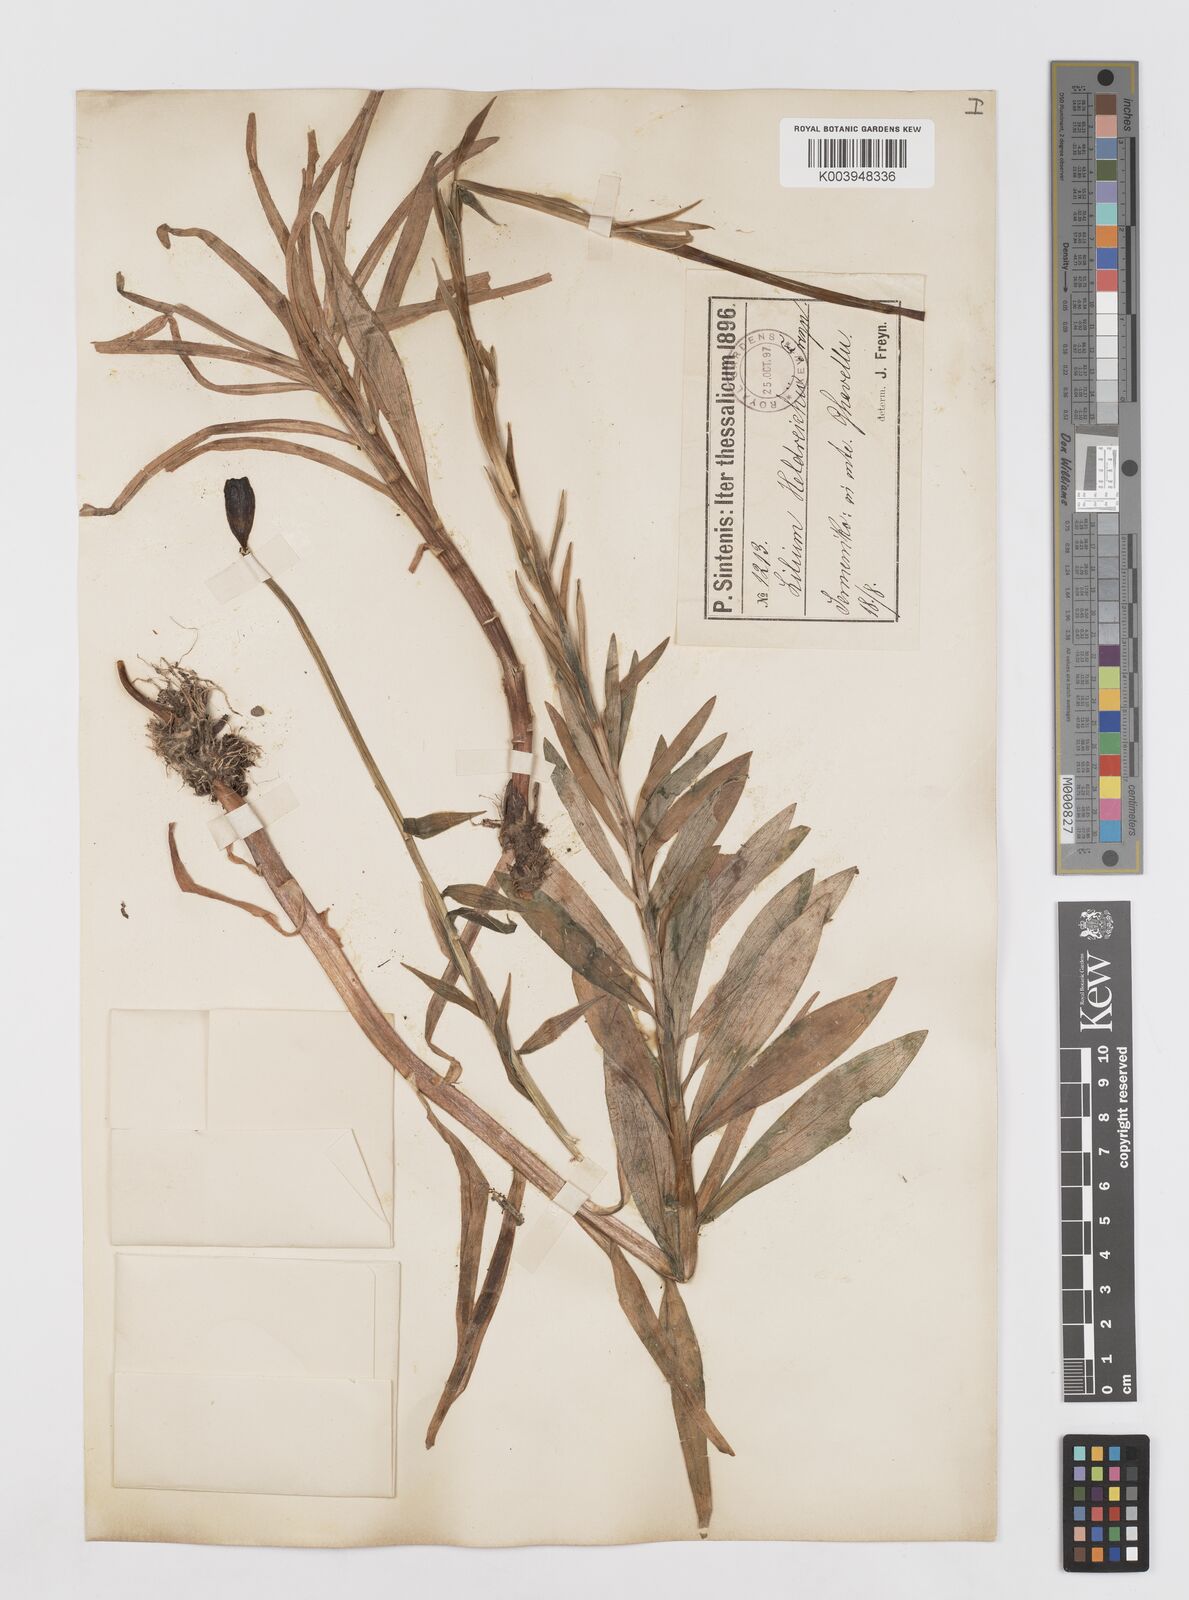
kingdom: Plantae
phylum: Tracheophyta
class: Liliopsida
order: Liliales
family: Liliaceae
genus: Lilium
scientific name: Lilium chalcedonicum
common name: Red martagon of constantinople
